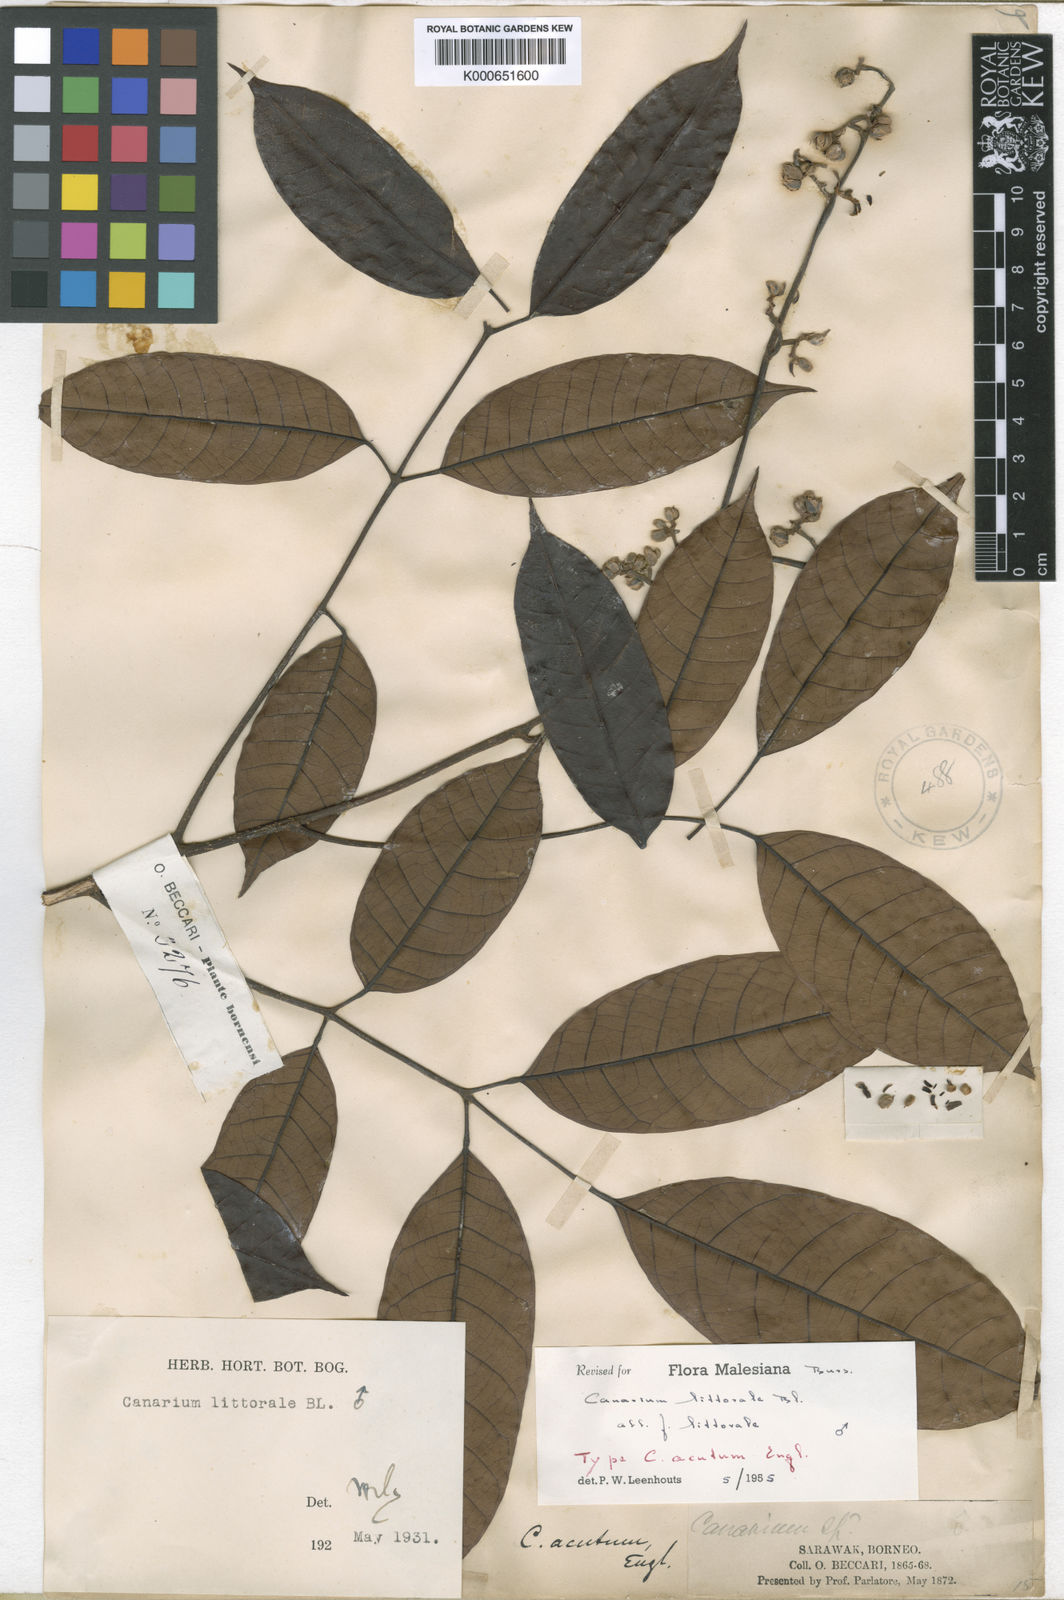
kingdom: Plantae
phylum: Tracheophyta
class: Magnoliopsida
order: Sapindales
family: Burseraceae
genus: Canarium
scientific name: Canarium littorale
